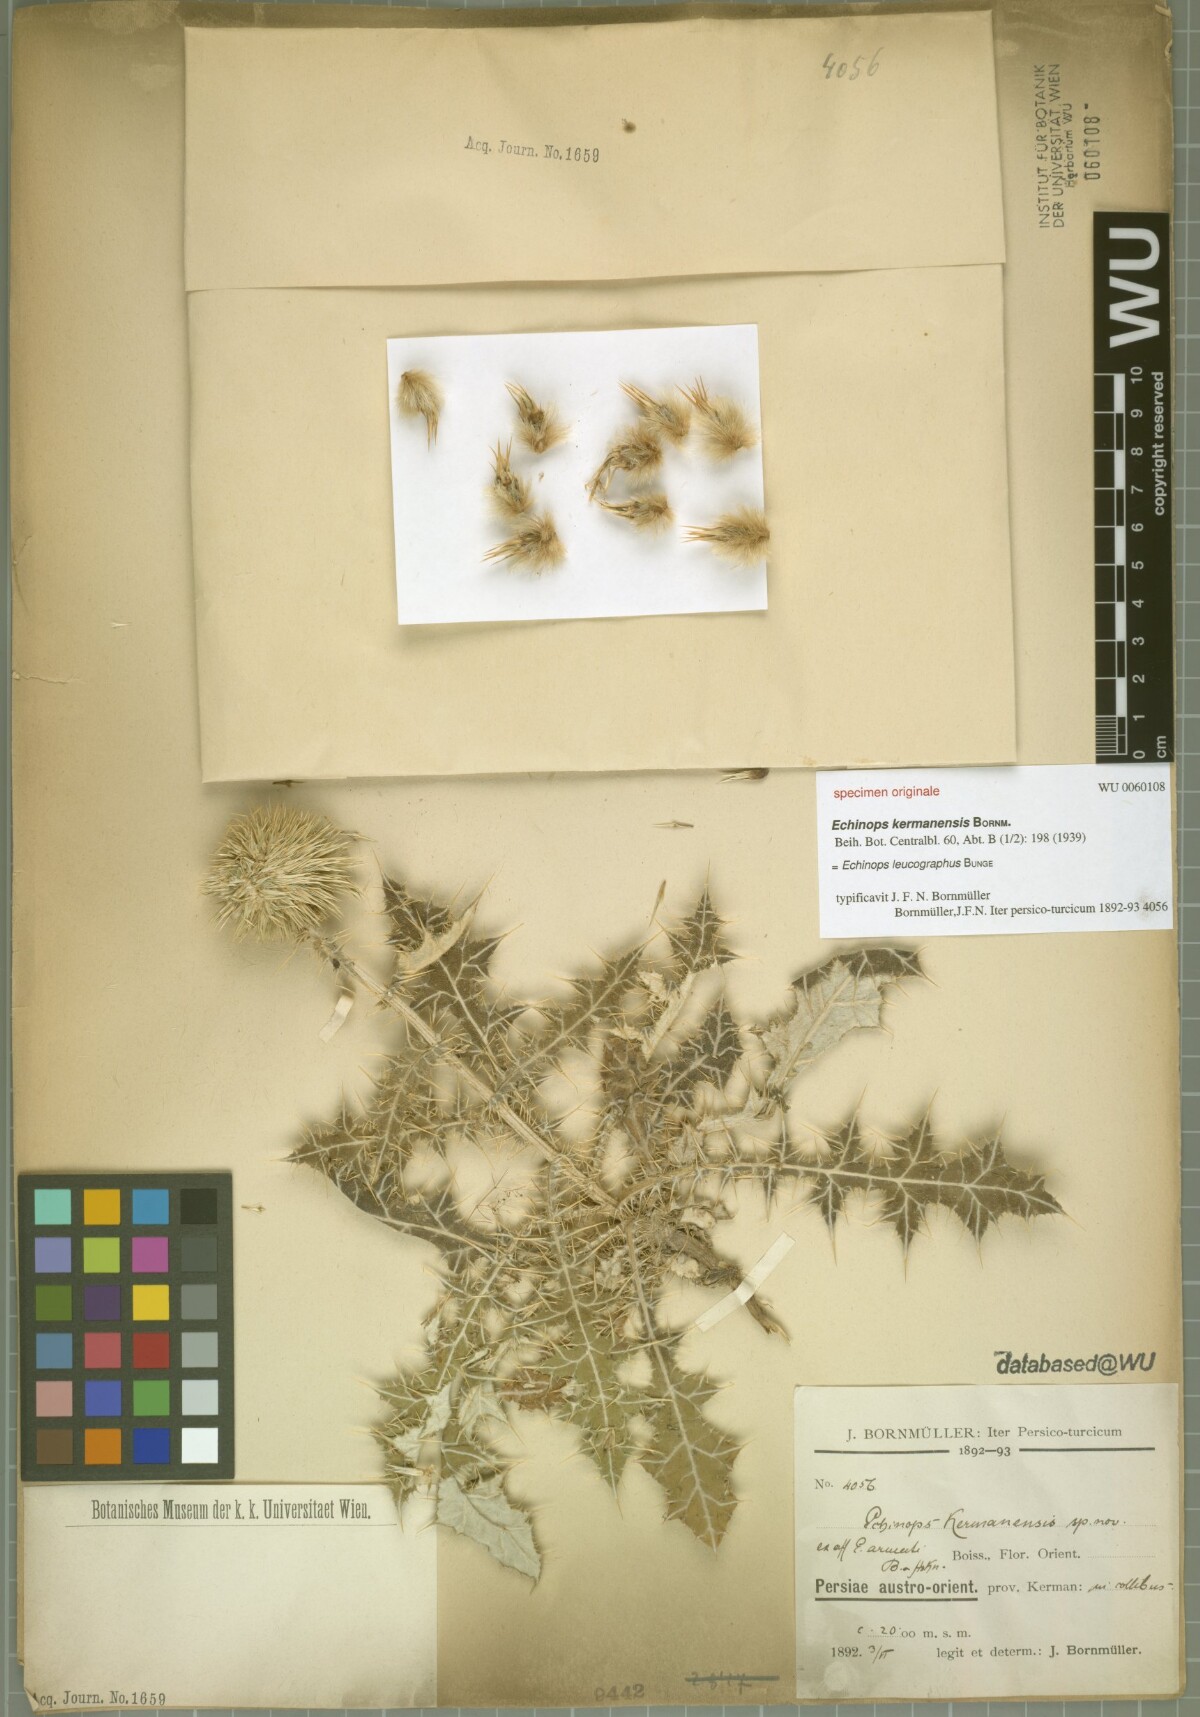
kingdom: Plantae
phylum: Tracheophyta
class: Magnoliopsida
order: Asterales
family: Asteraceae
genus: Echinops
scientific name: Echinops leucographus
